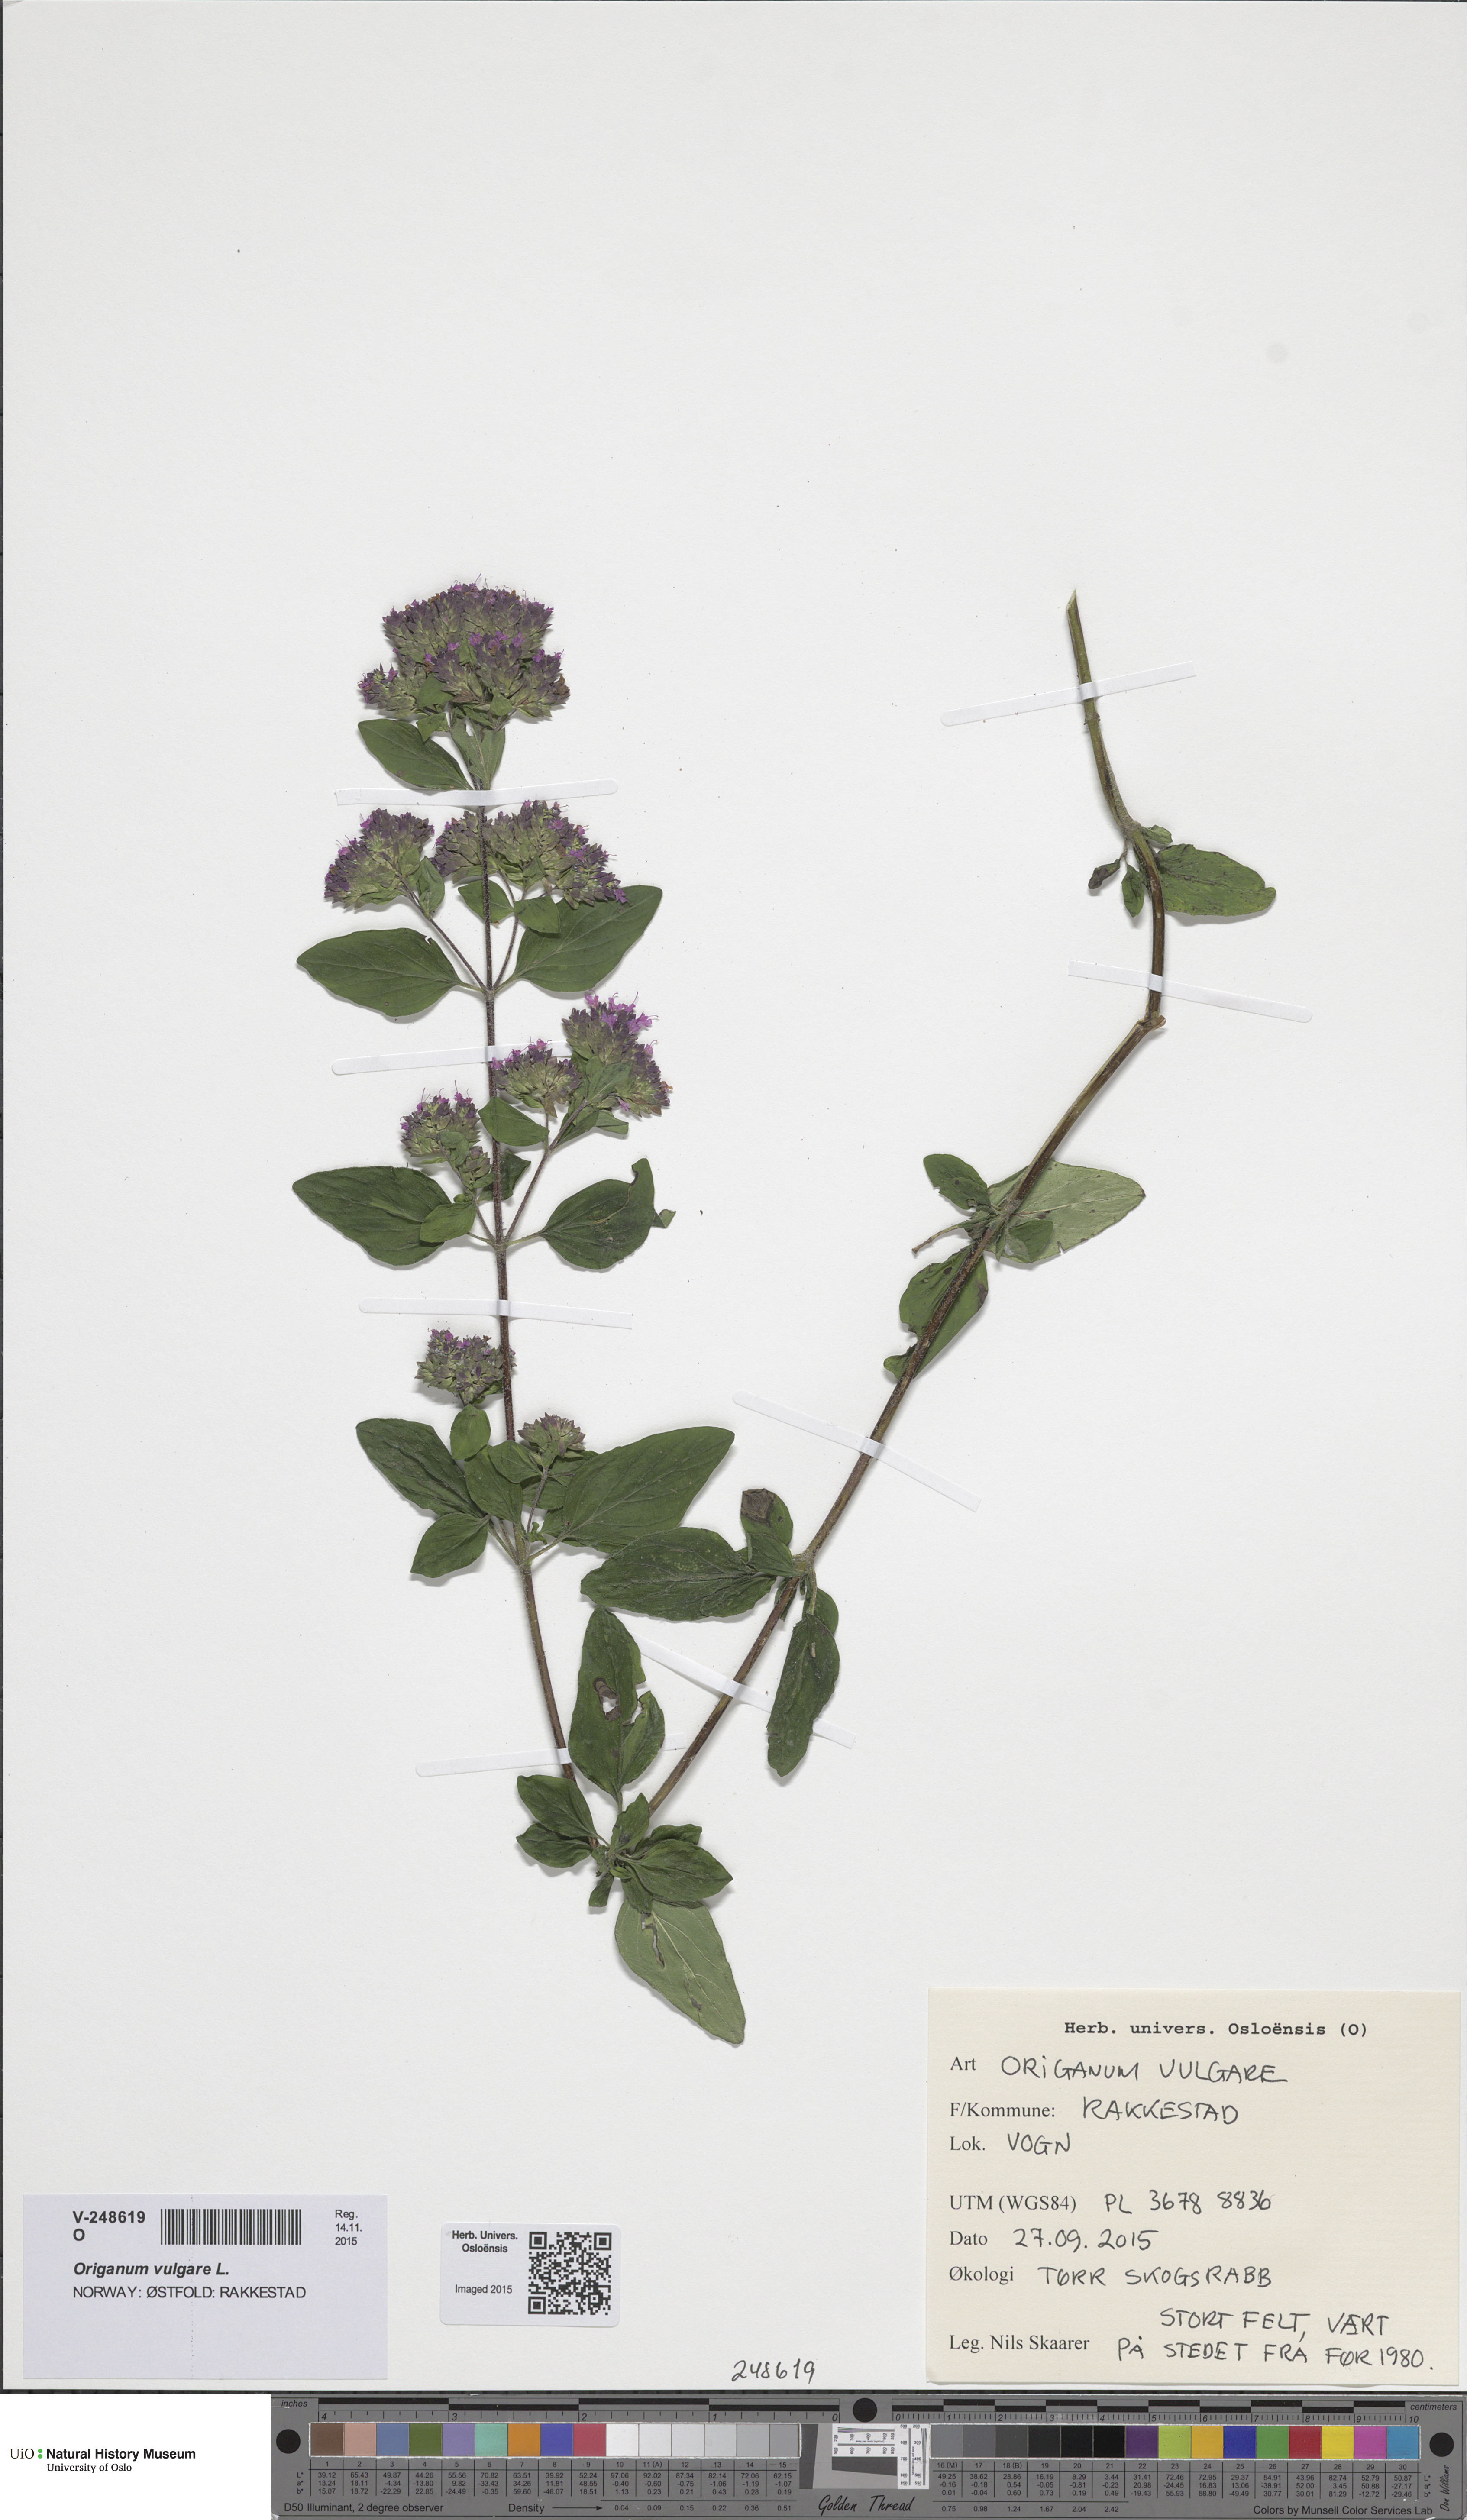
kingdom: Plantae
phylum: Tracheophyta
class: Magnoliopsida
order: Lamiales
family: Lamiaceae
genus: Origanum
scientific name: Origanum vulgare
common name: Wild marjoram
